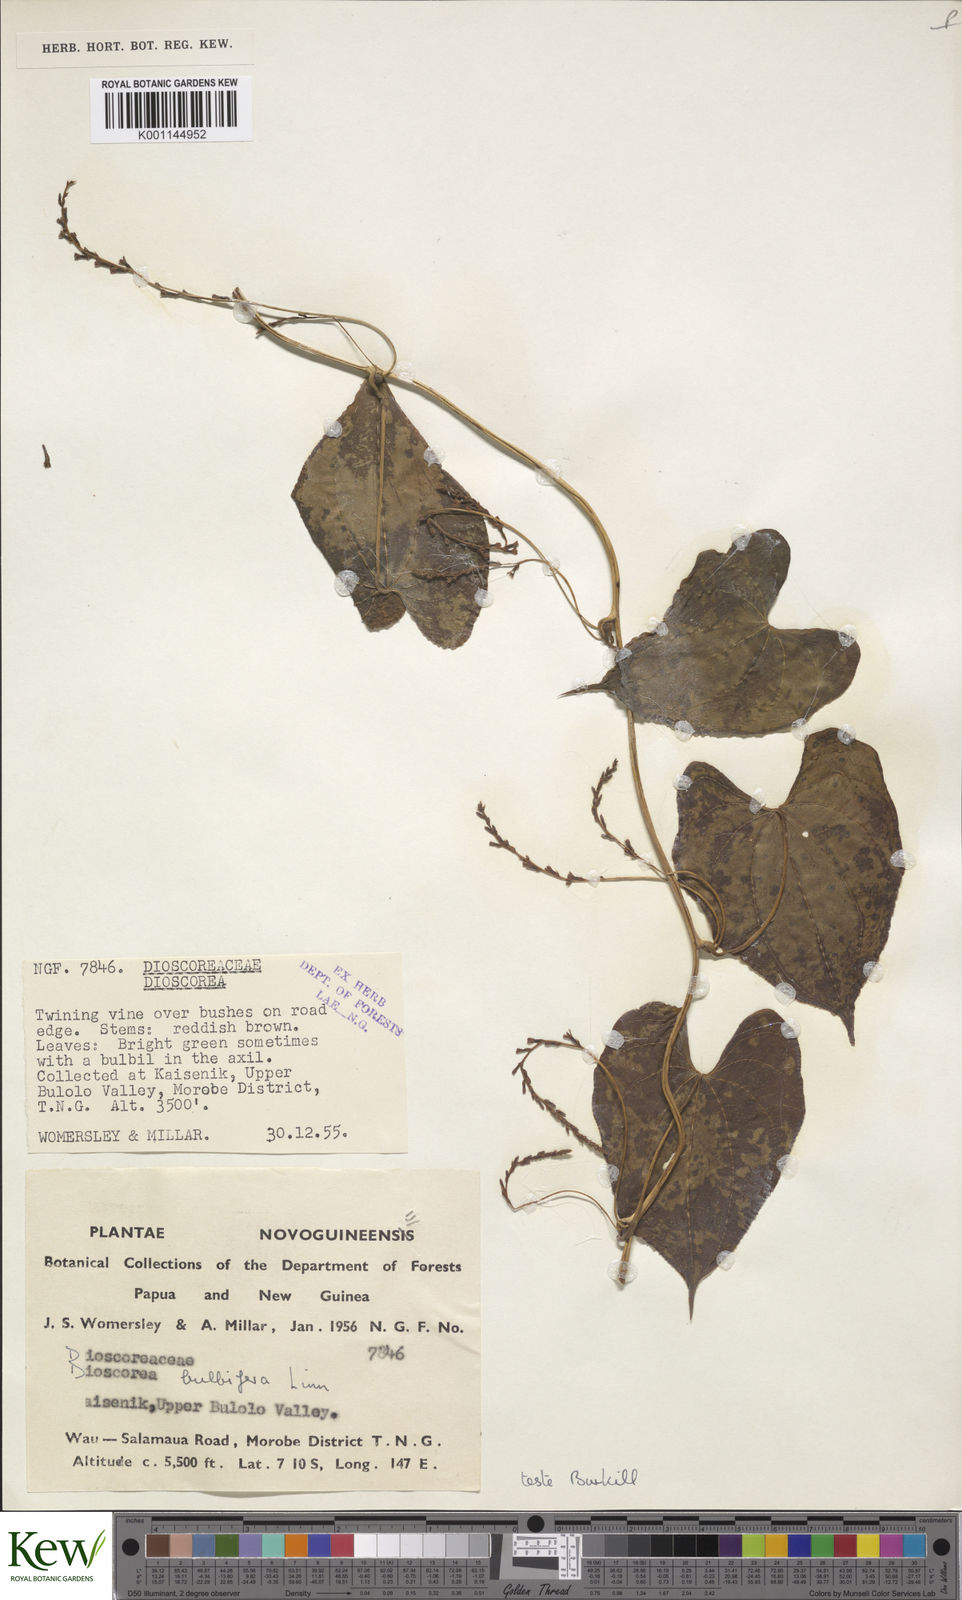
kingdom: Plantae
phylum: Tracheophyta
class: Liliopsida
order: Dioscoreales
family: Dioscoreaceae
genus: Dioscorea
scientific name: Dioscorea bulbifera
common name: Air yam
